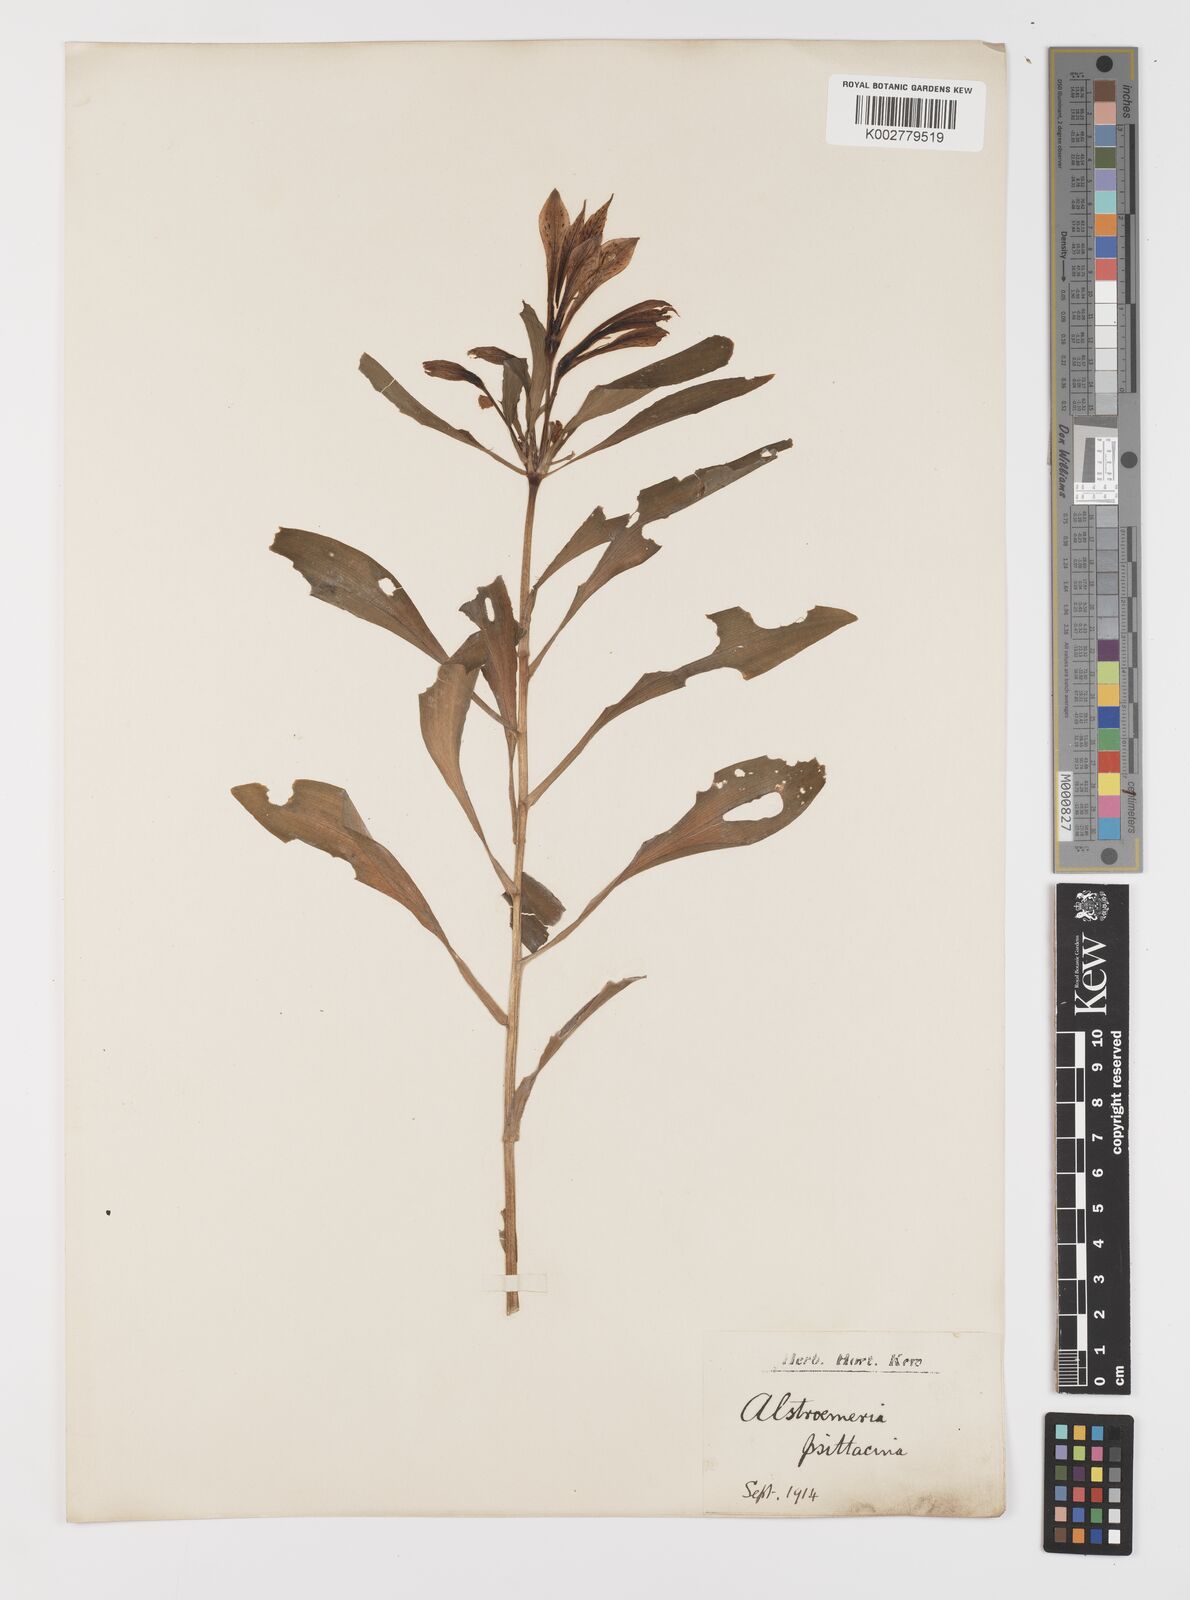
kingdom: Plantae
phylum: Tracheophyta
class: Liliopsida
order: Liliales
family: Alstroemeriaceae
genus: Alstroemeria
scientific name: Alstroemeria pelegrina
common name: Peruvian-lily
